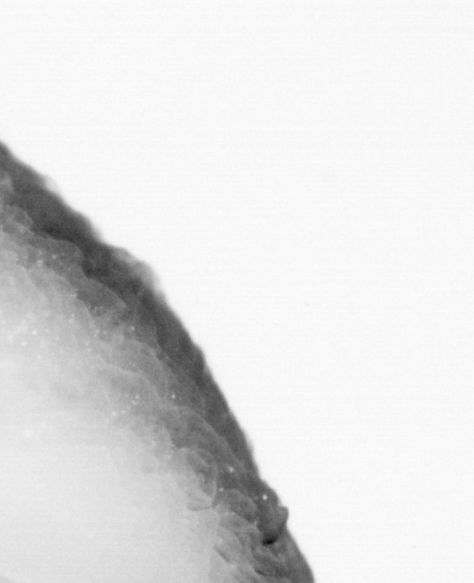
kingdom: Animalia
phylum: Chordata
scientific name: Chordata
